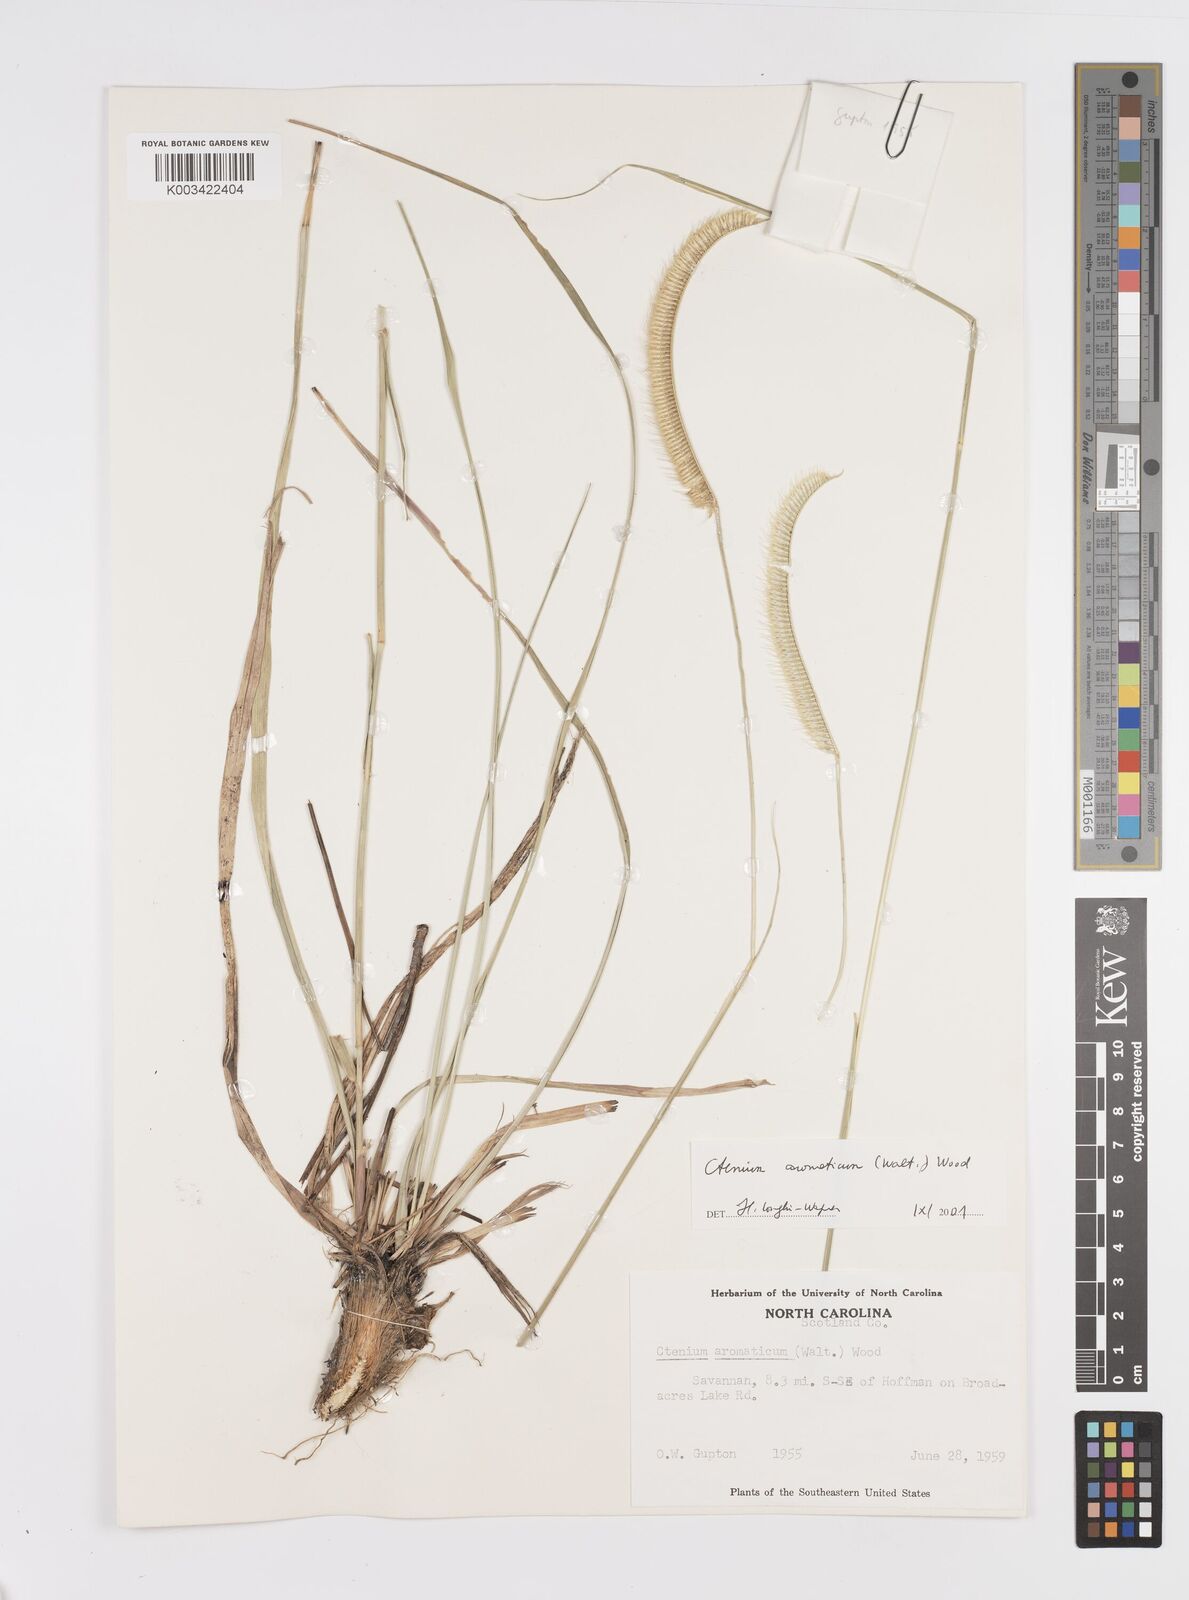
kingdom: Plantae
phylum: Tracheophyta
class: Liliopsida
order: Poales
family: Poaceae
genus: Ctenium
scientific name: Ctenium aromaticum
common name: Toothache grass
